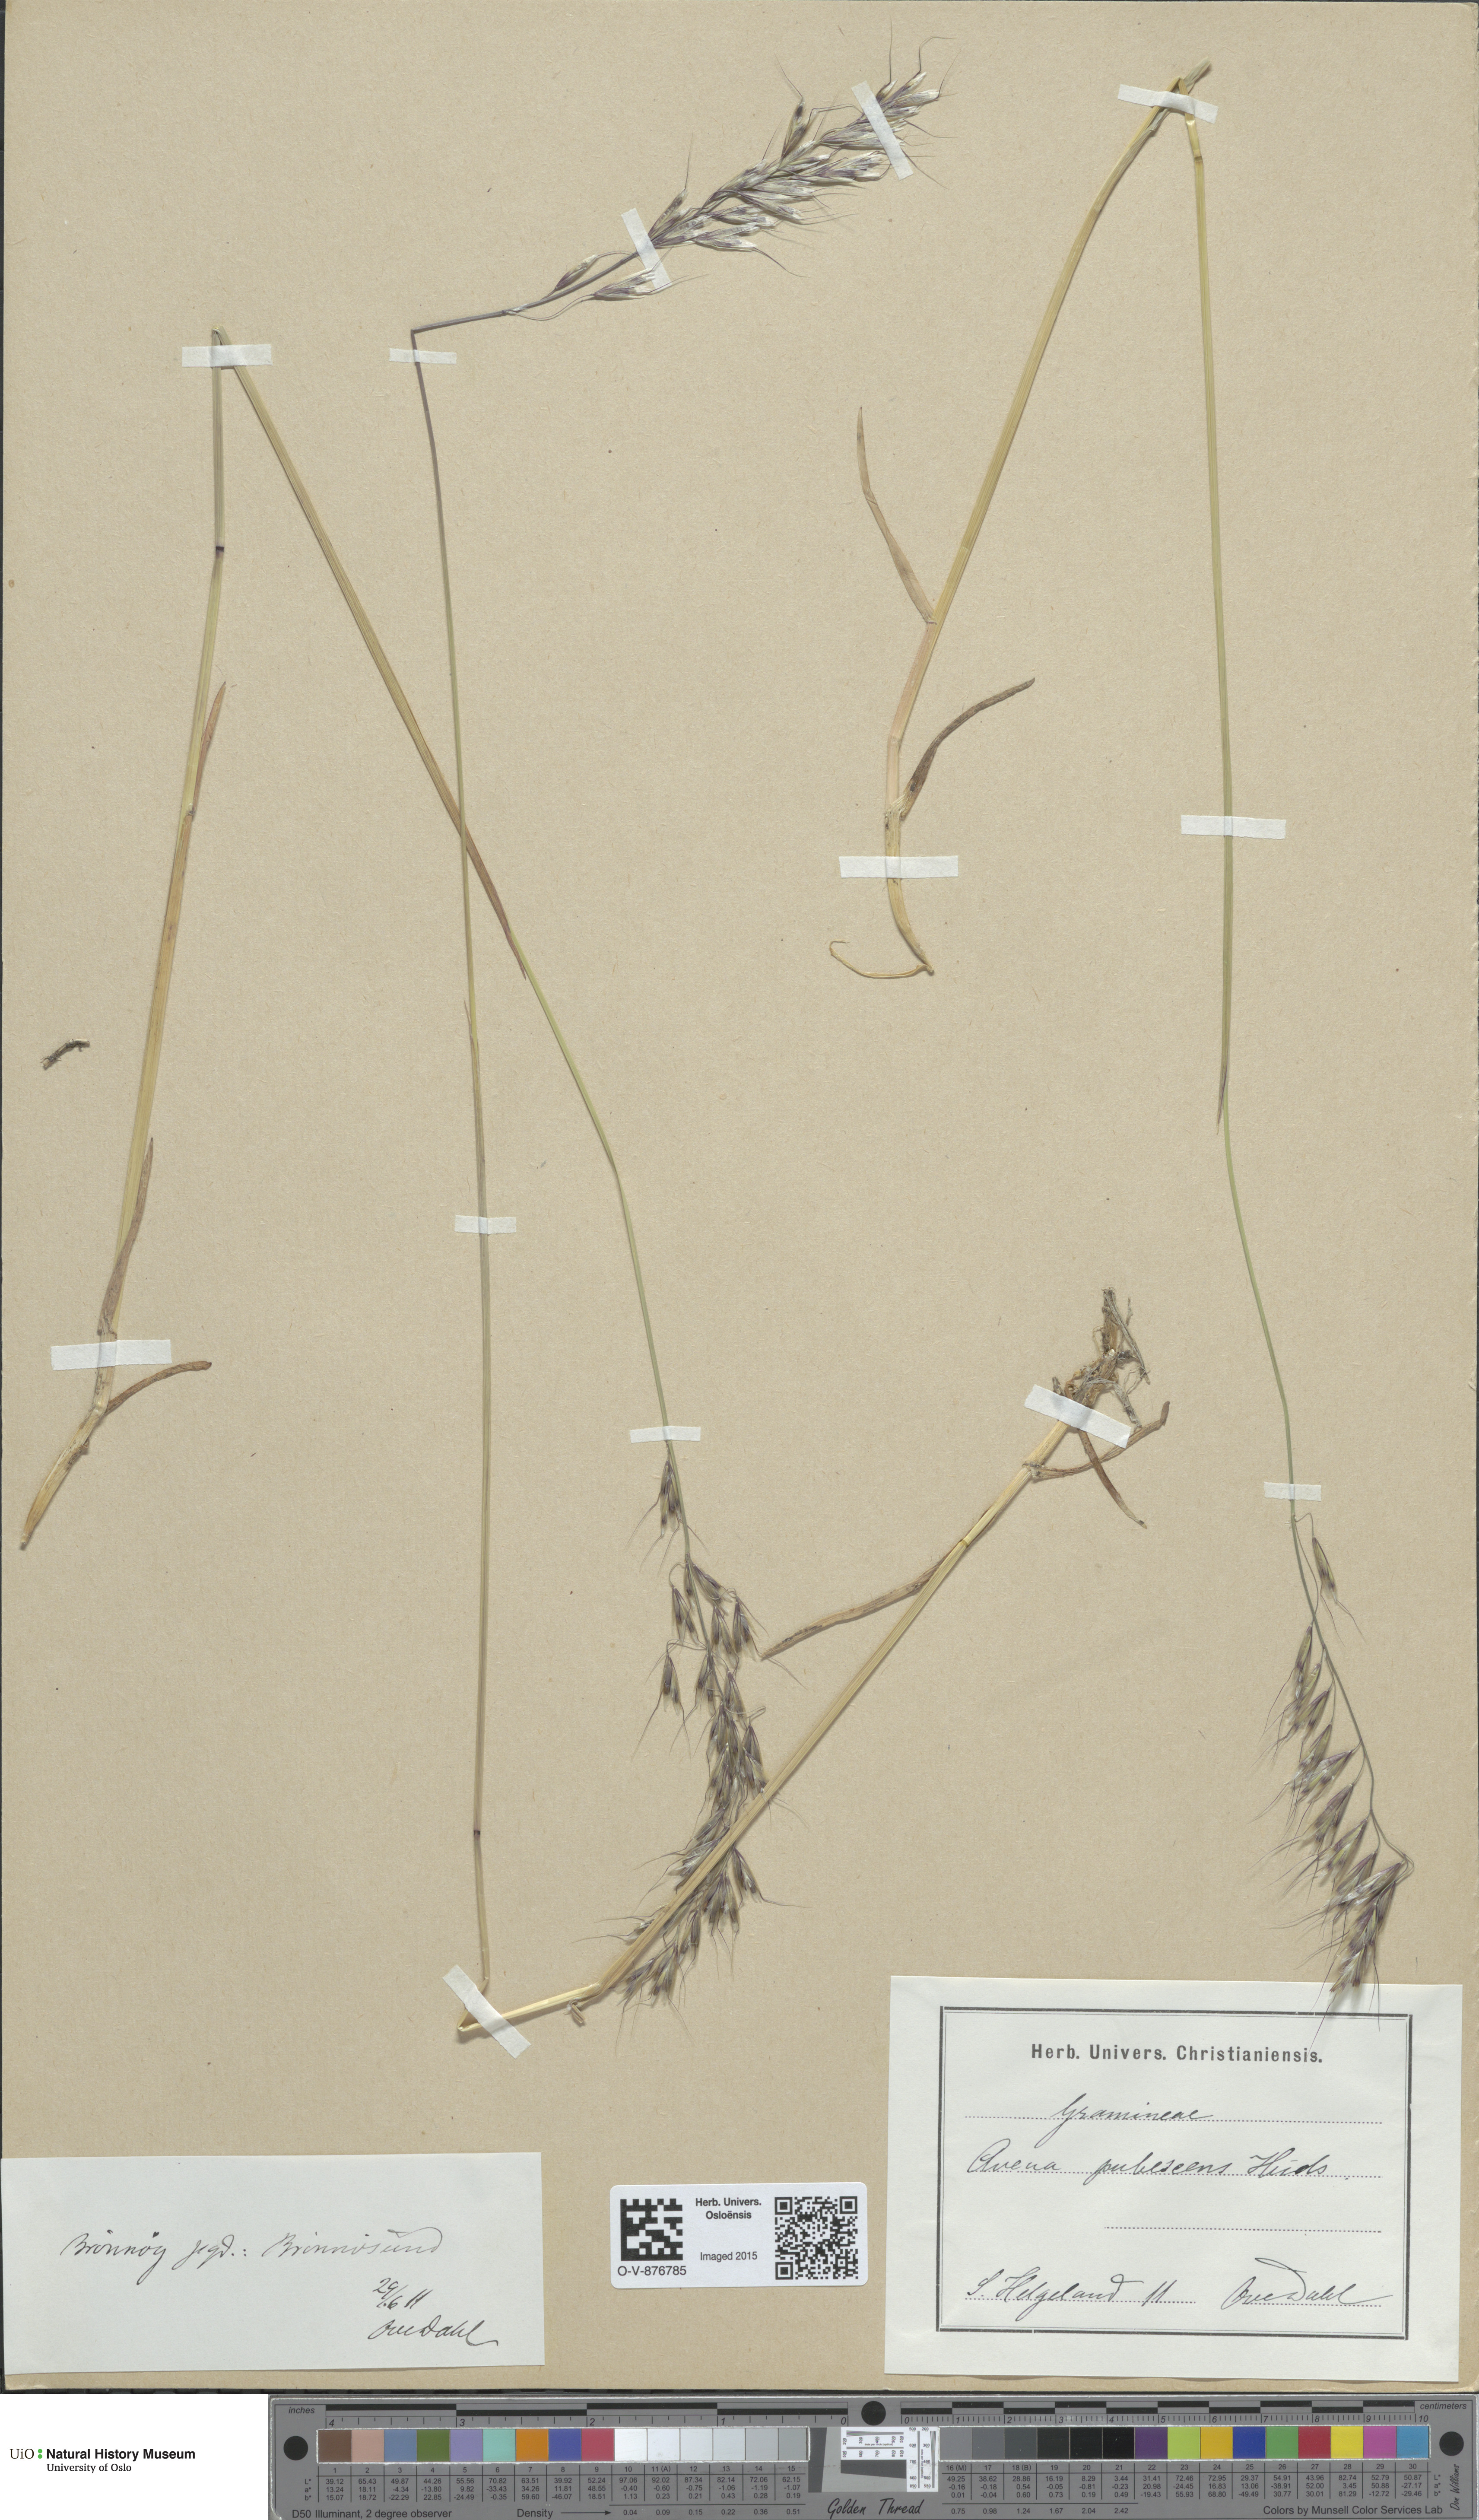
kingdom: Plantae
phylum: Tracheophyta
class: Liliopsida
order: Poales
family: Poaceae
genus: Avenula
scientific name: Avenula pubescens
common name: Downy alpine oatgrass
